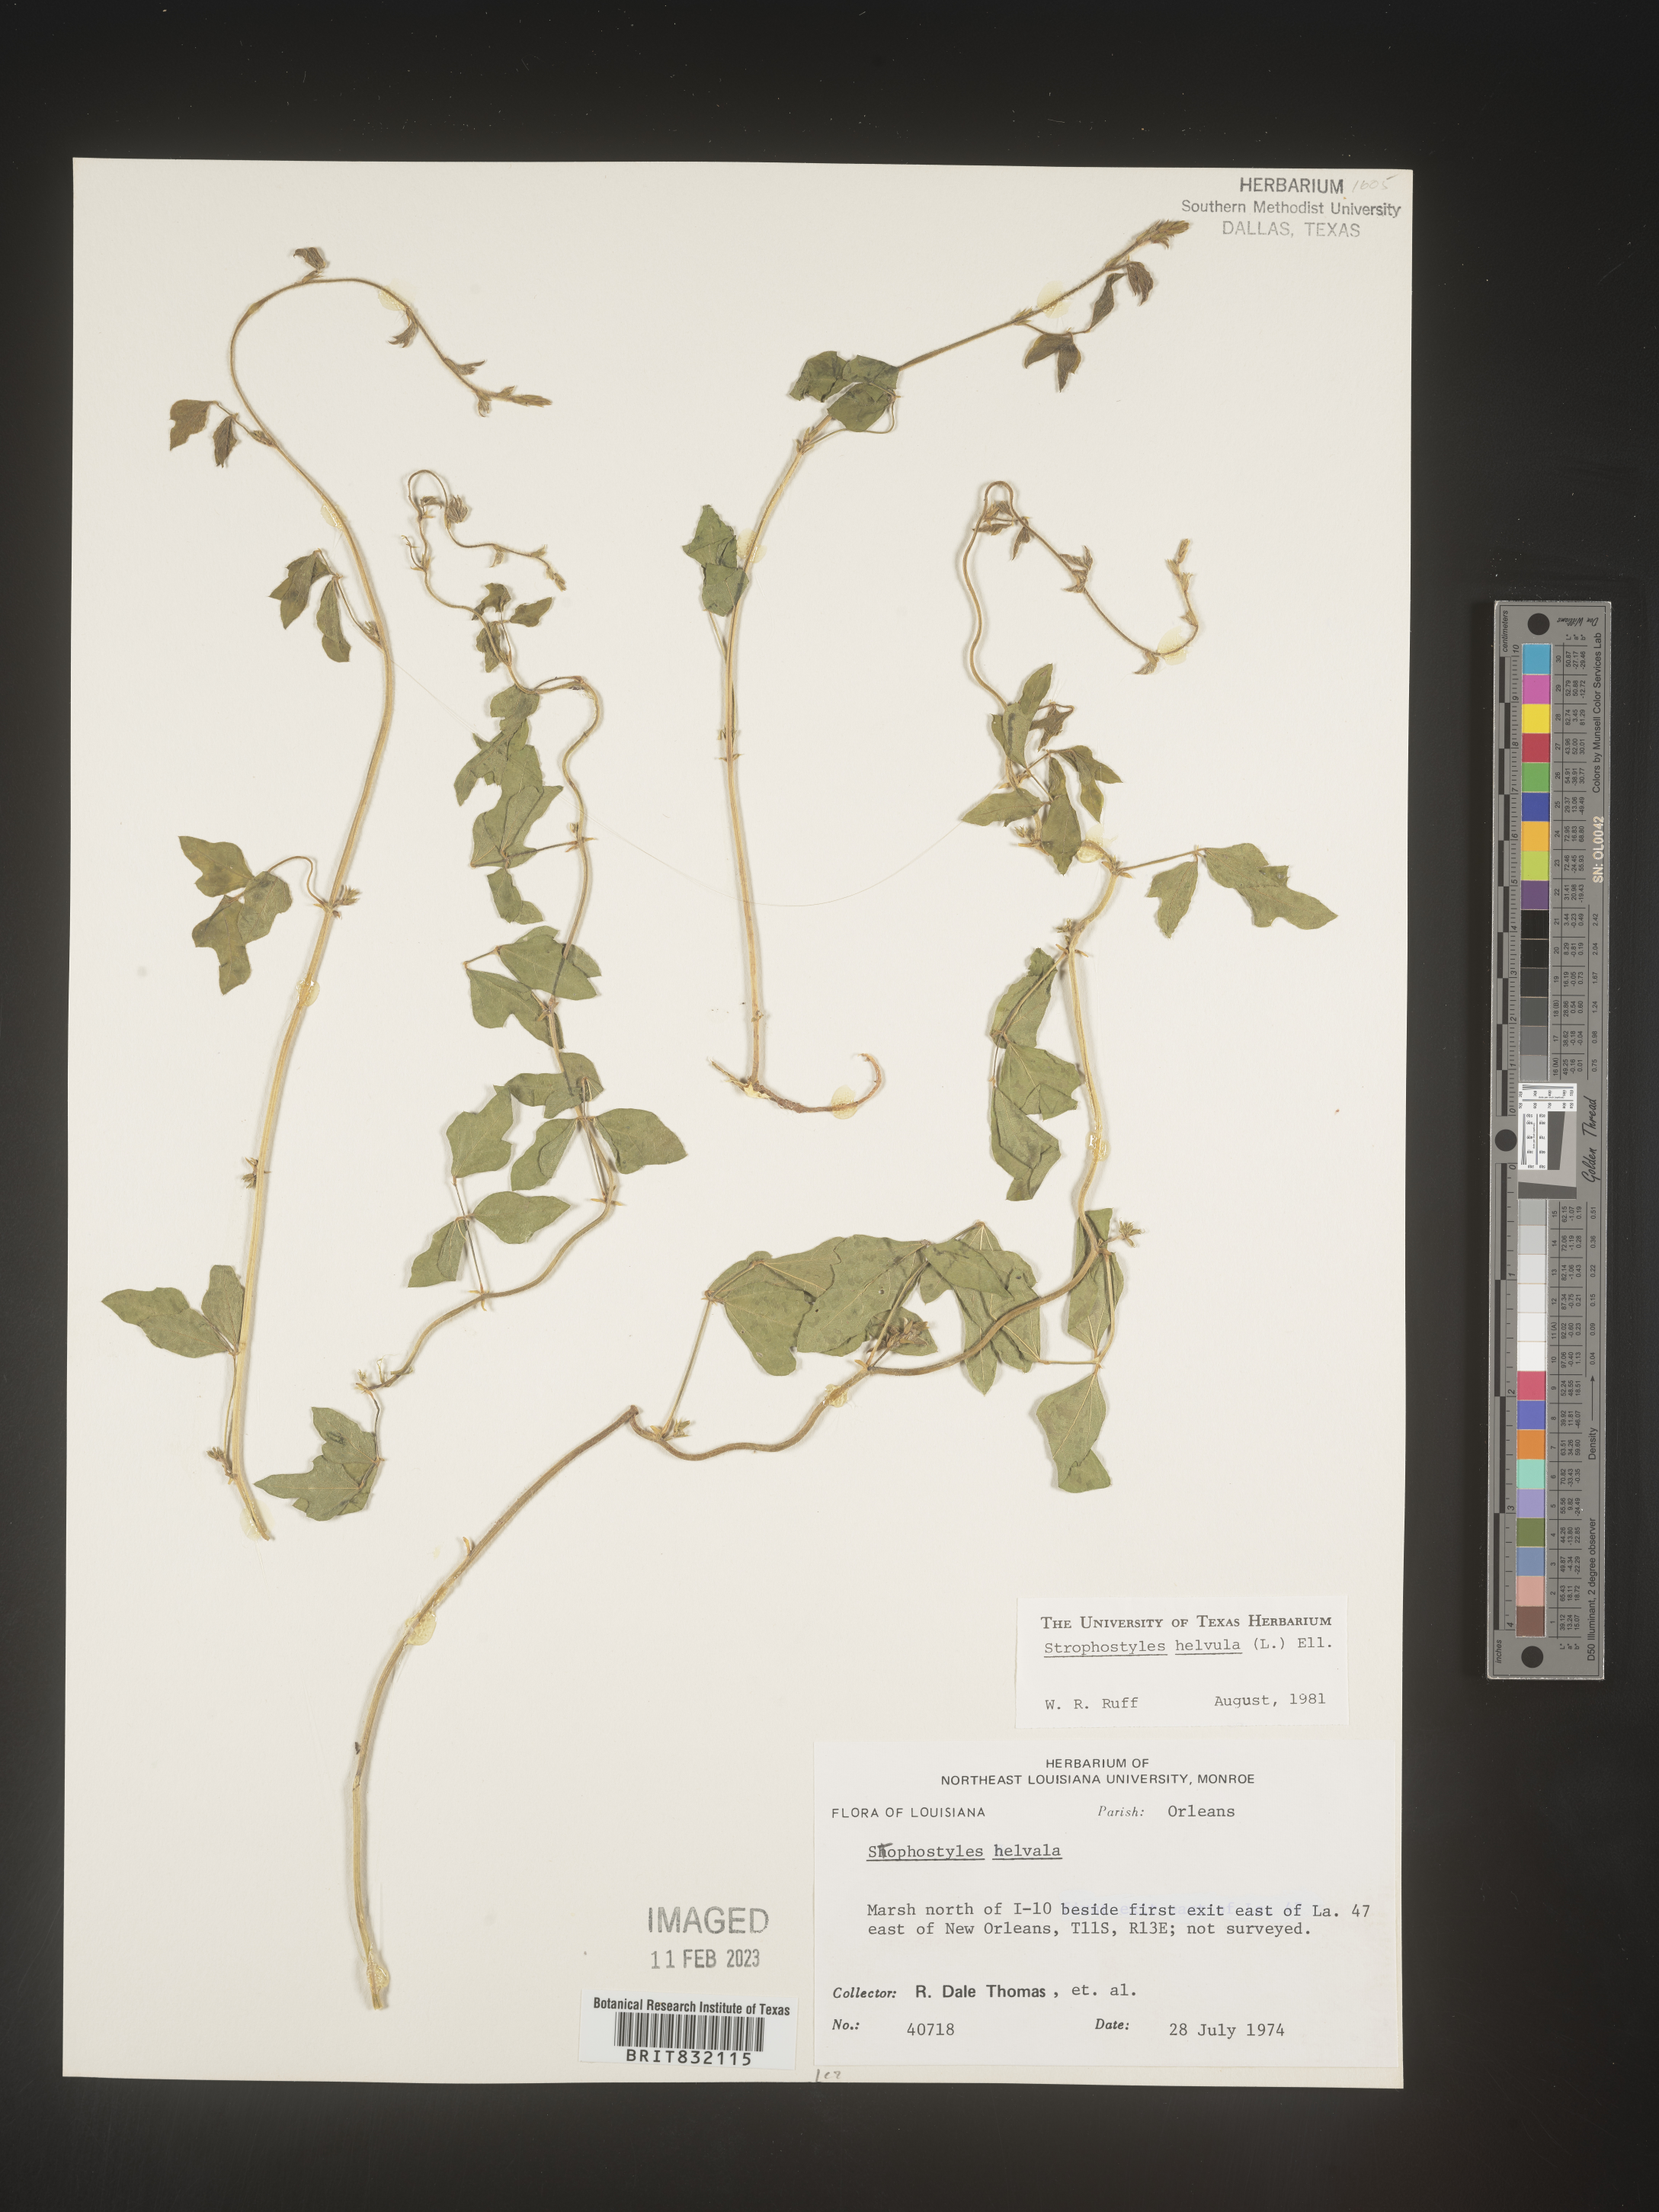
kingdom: Plantae
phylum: Tracheophyta
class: Magnoliopsida
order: Fabales
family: Fabaceae
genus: Strophostyles
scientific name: Strophostyles helvola
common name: Trailing wild bean
